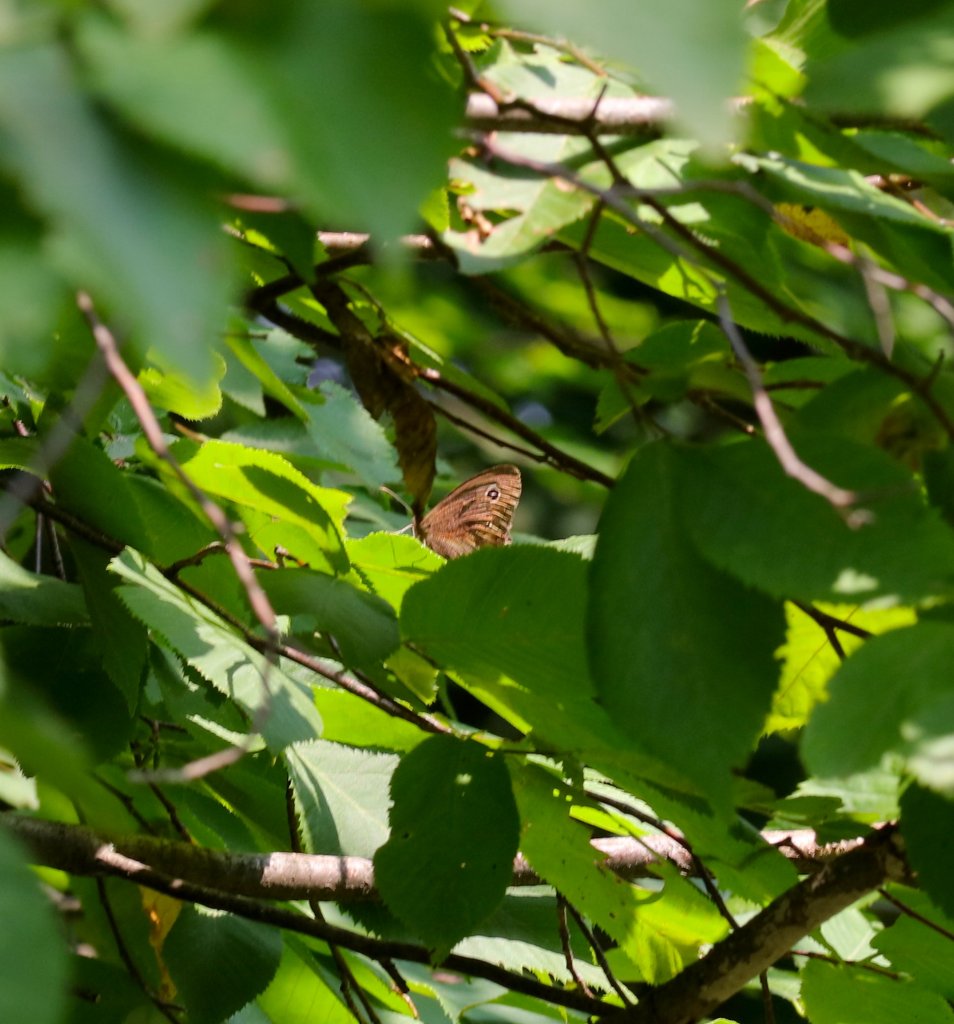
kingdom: Animalia
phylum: Arthropoda
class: Insecta
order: Lepidoptera
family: Nymphalidae
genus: Cercyonis
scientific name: Cercyonis pegala
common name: Common Wood-Nymph
